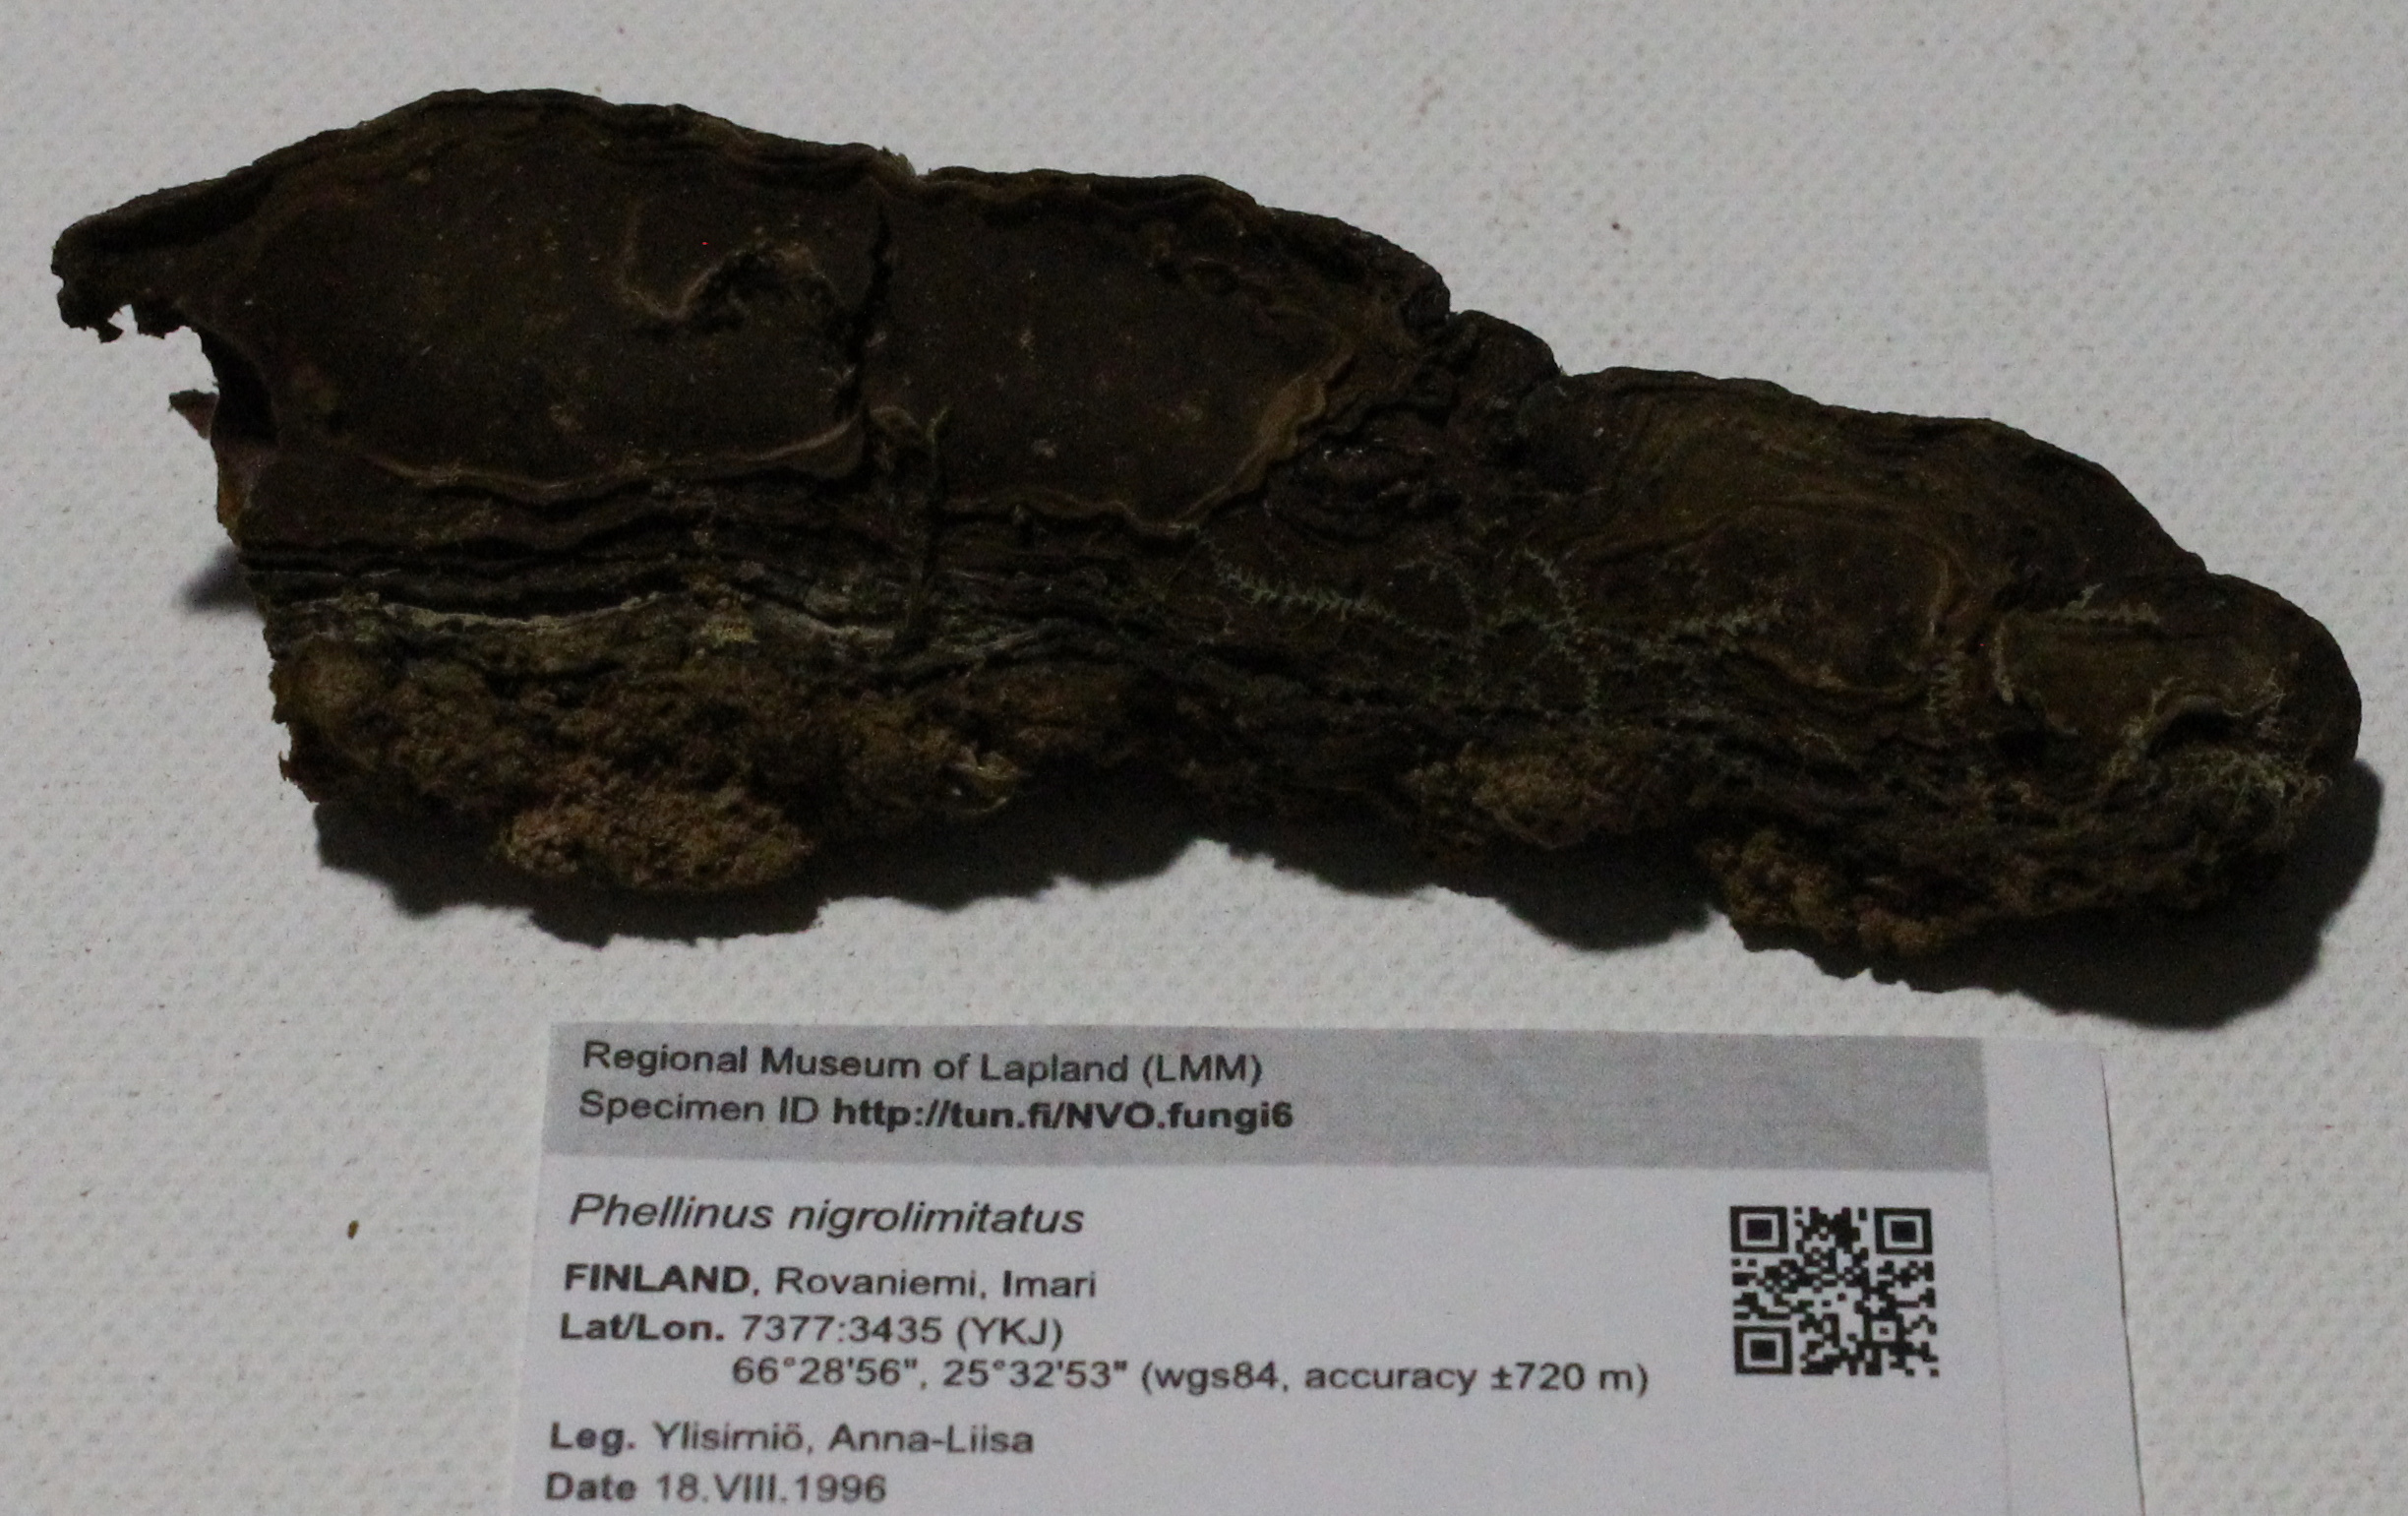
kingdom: Fungi
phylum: Basidiomycota
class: Agaricomycetes
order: Hymenochaetales
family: Hymenochaetaceae
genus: Phellopilus
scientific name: Phellopilus nigrolimitatus
